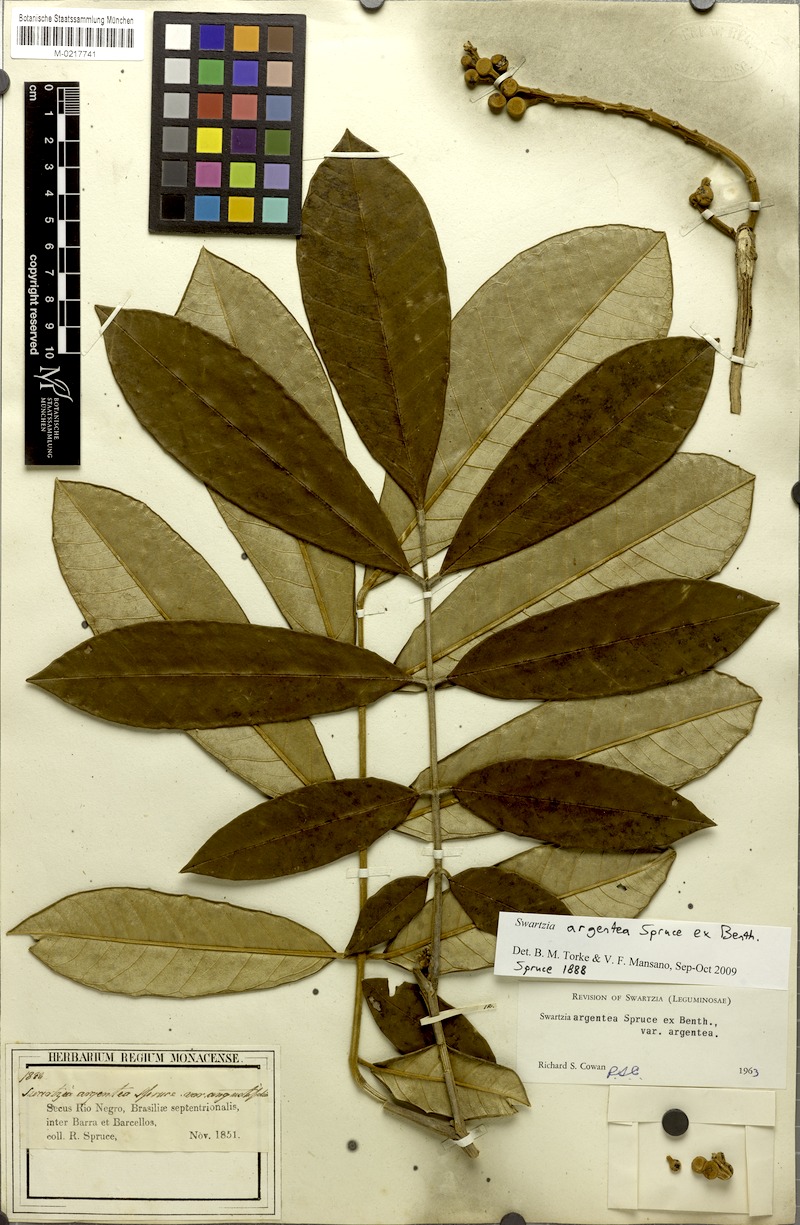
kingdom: Plantae
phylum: Tracheophyta
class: Magnoliopsida
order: Fabales
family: Fabaceae
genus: Swartzia
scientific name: Swartzia argentea
